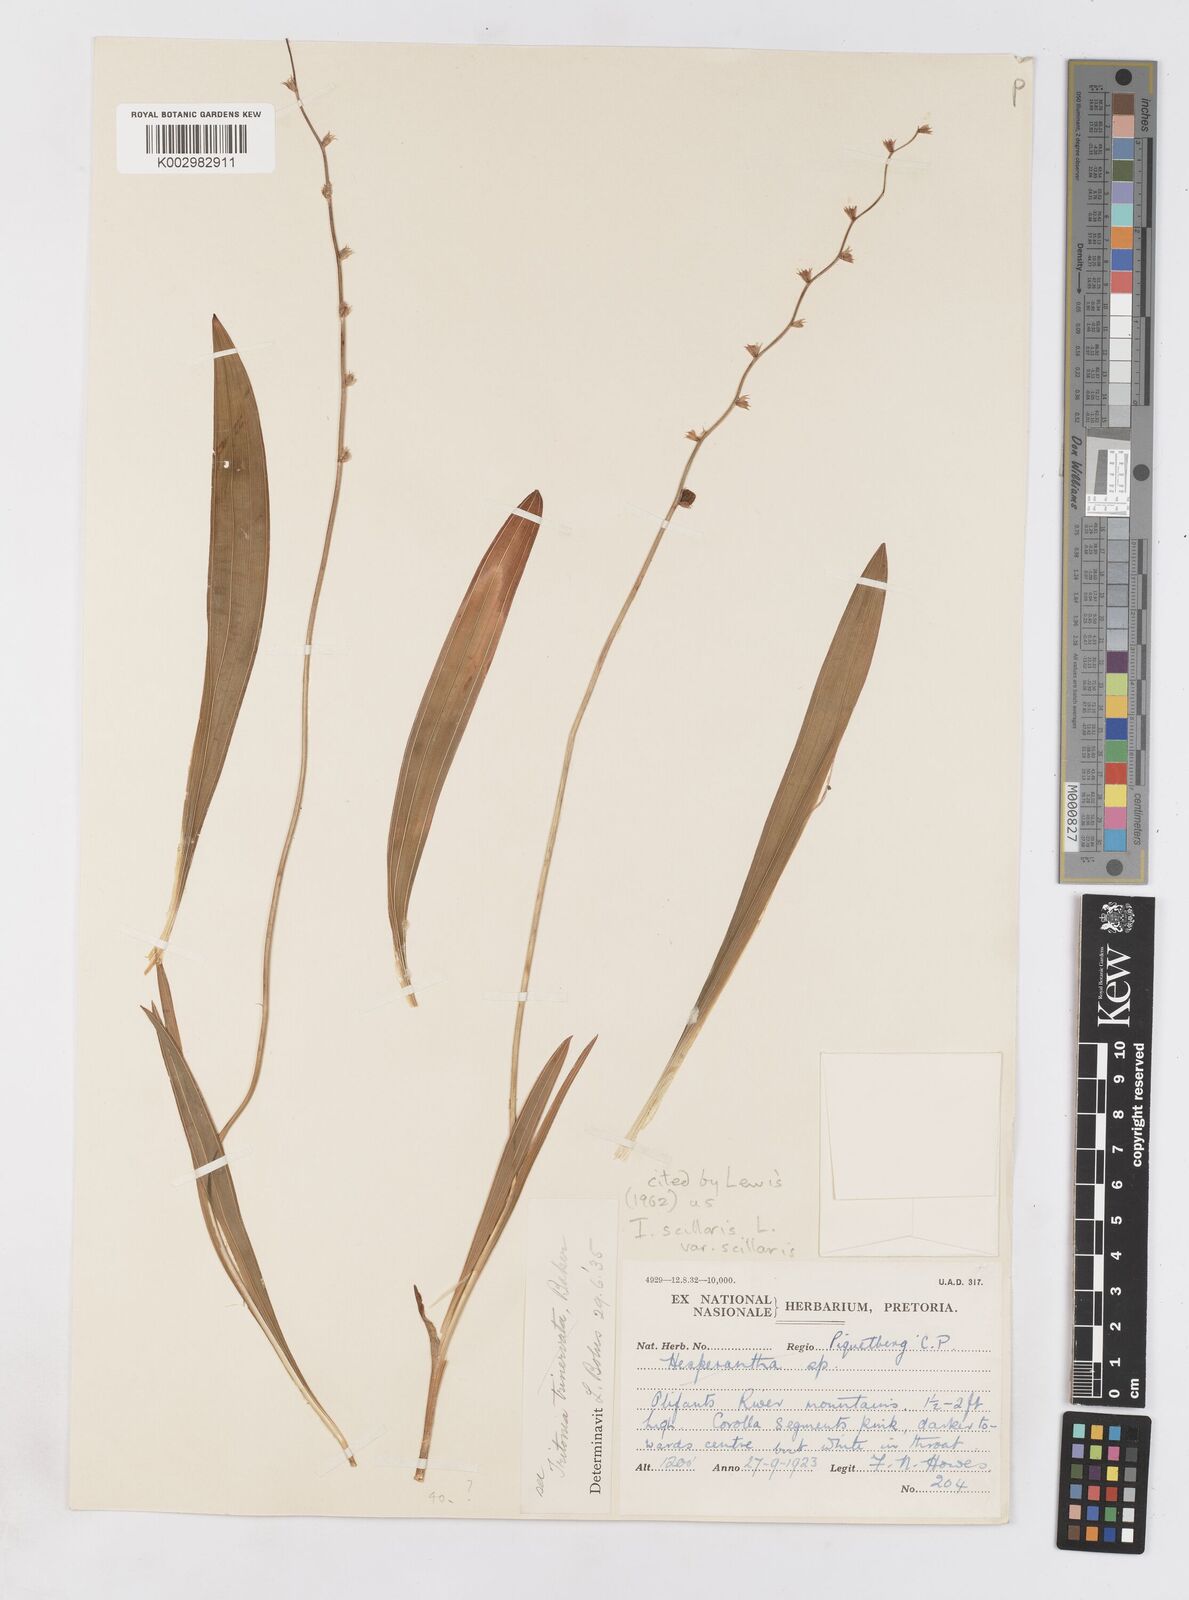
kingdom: Plantae
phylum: Tracheophyta
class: Liliopsida
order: Asparagales
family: Iridaceae
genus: Ixia
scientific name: Ixia scillaris
